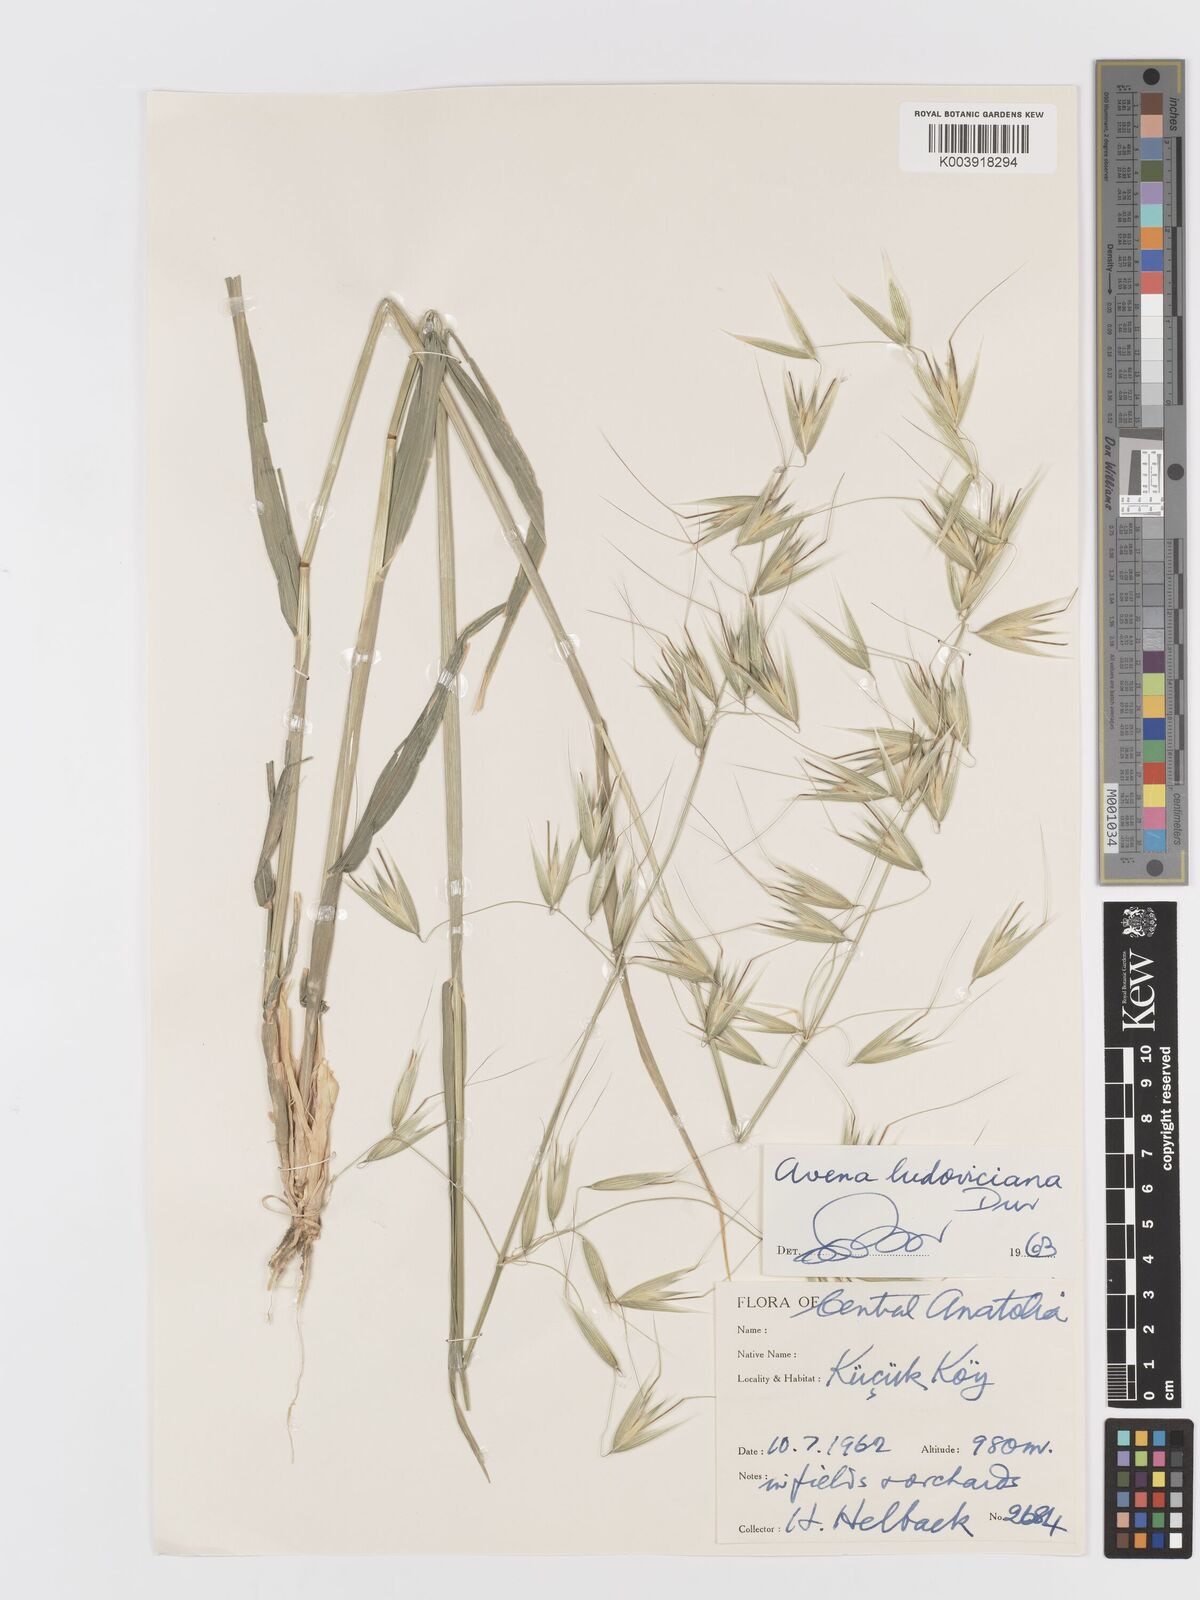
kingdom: Plantae
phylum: Tracheophyta
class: Liliopsida
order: Poales
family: Poaceae
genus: Avena
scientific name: Avena sterilis
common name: Animated oat
